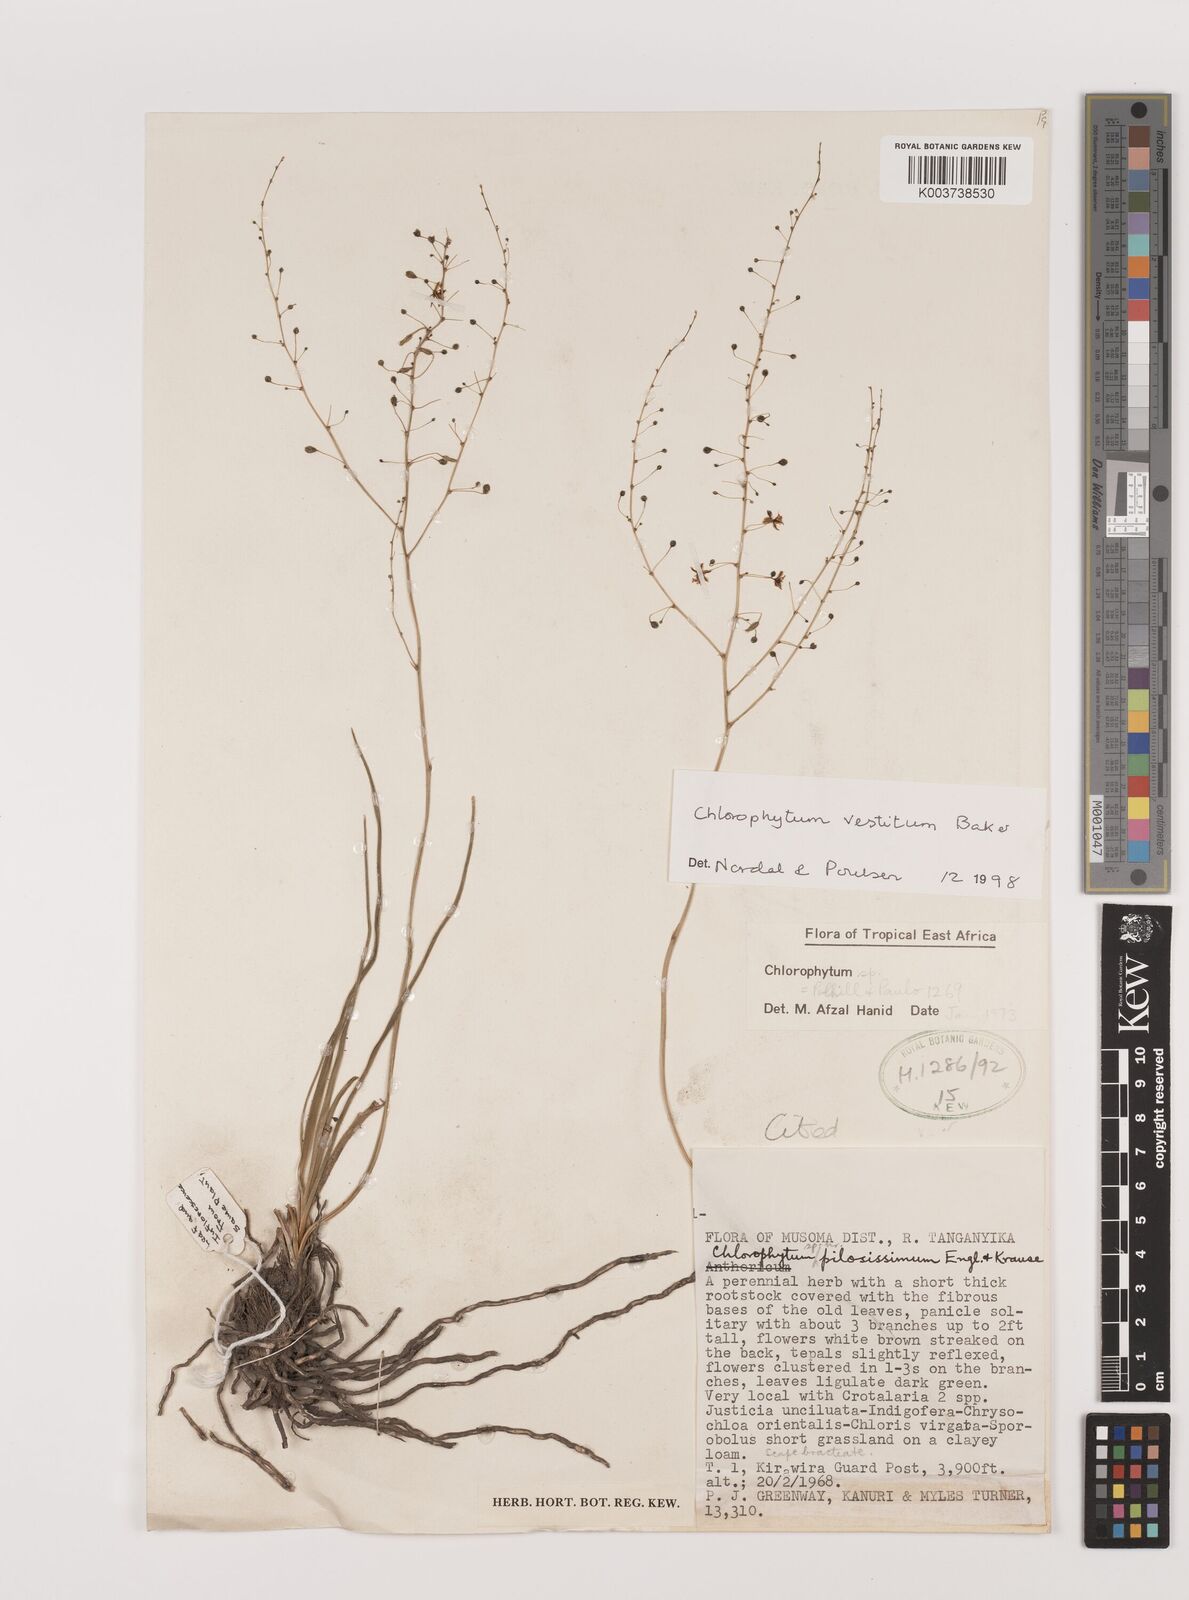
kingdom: Plantae
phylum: Tracheophyta
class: Liliopsida
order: Asparagales
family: Asparagaceae
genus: Chlorophytum
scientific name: Chlorophytum vestitum
